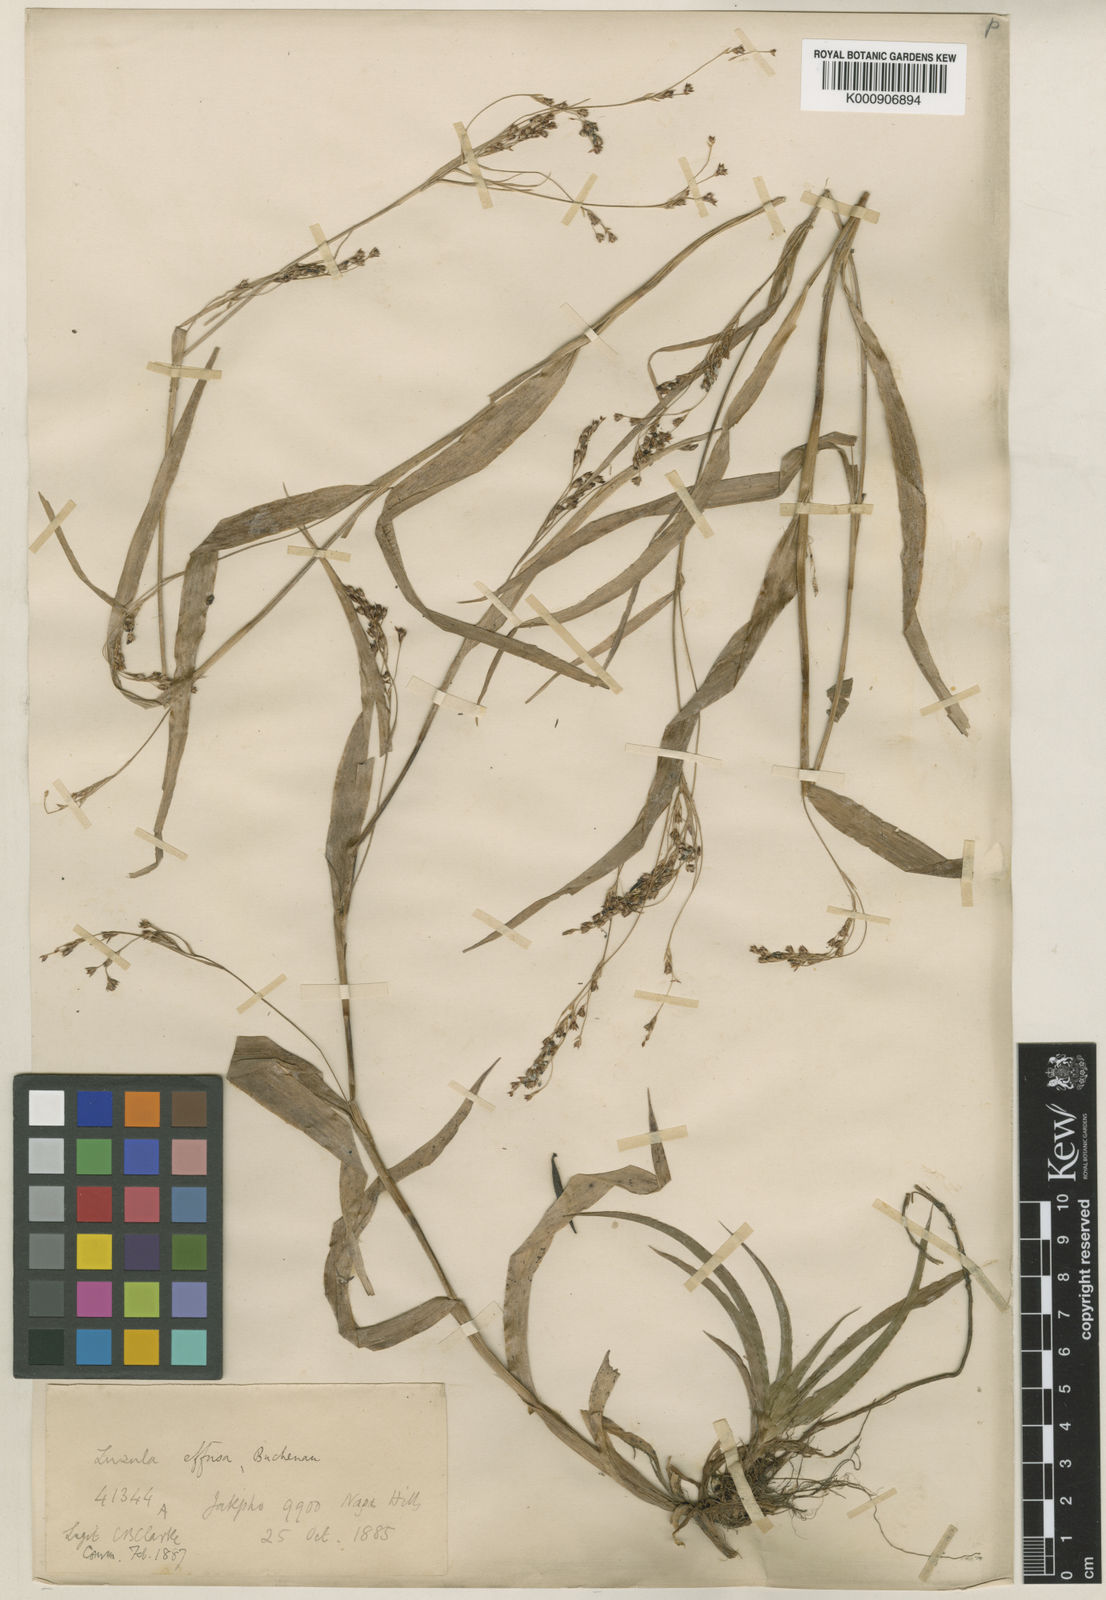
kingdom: Plantae
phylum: Tracheophyta
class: Liliopsida
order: Poales
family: Juncaceae
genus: Luzula
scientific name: Luzula effusa
